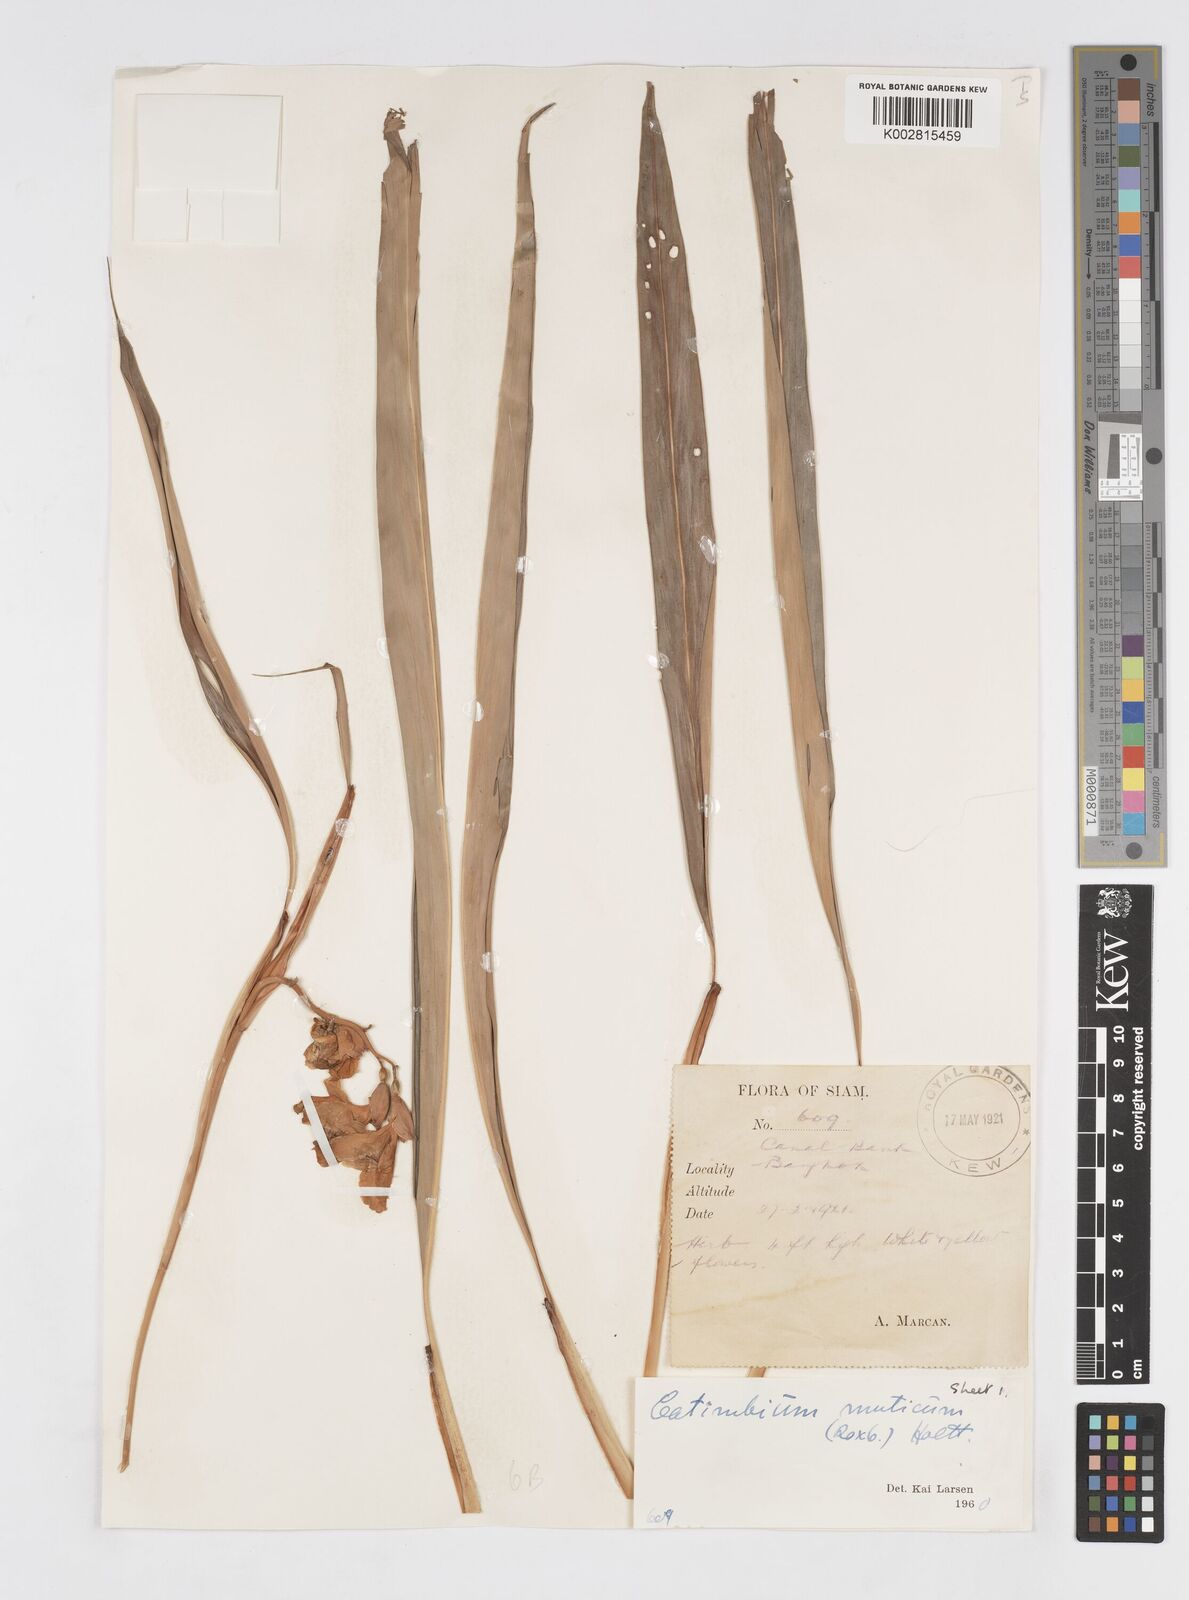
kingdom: Plantae
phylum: Tracheophyta
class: Liliopsida
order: Zingiberales
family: Zingiberaceae
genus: Alpinia
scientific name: Alpinia mutica
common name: Small shell ginger
